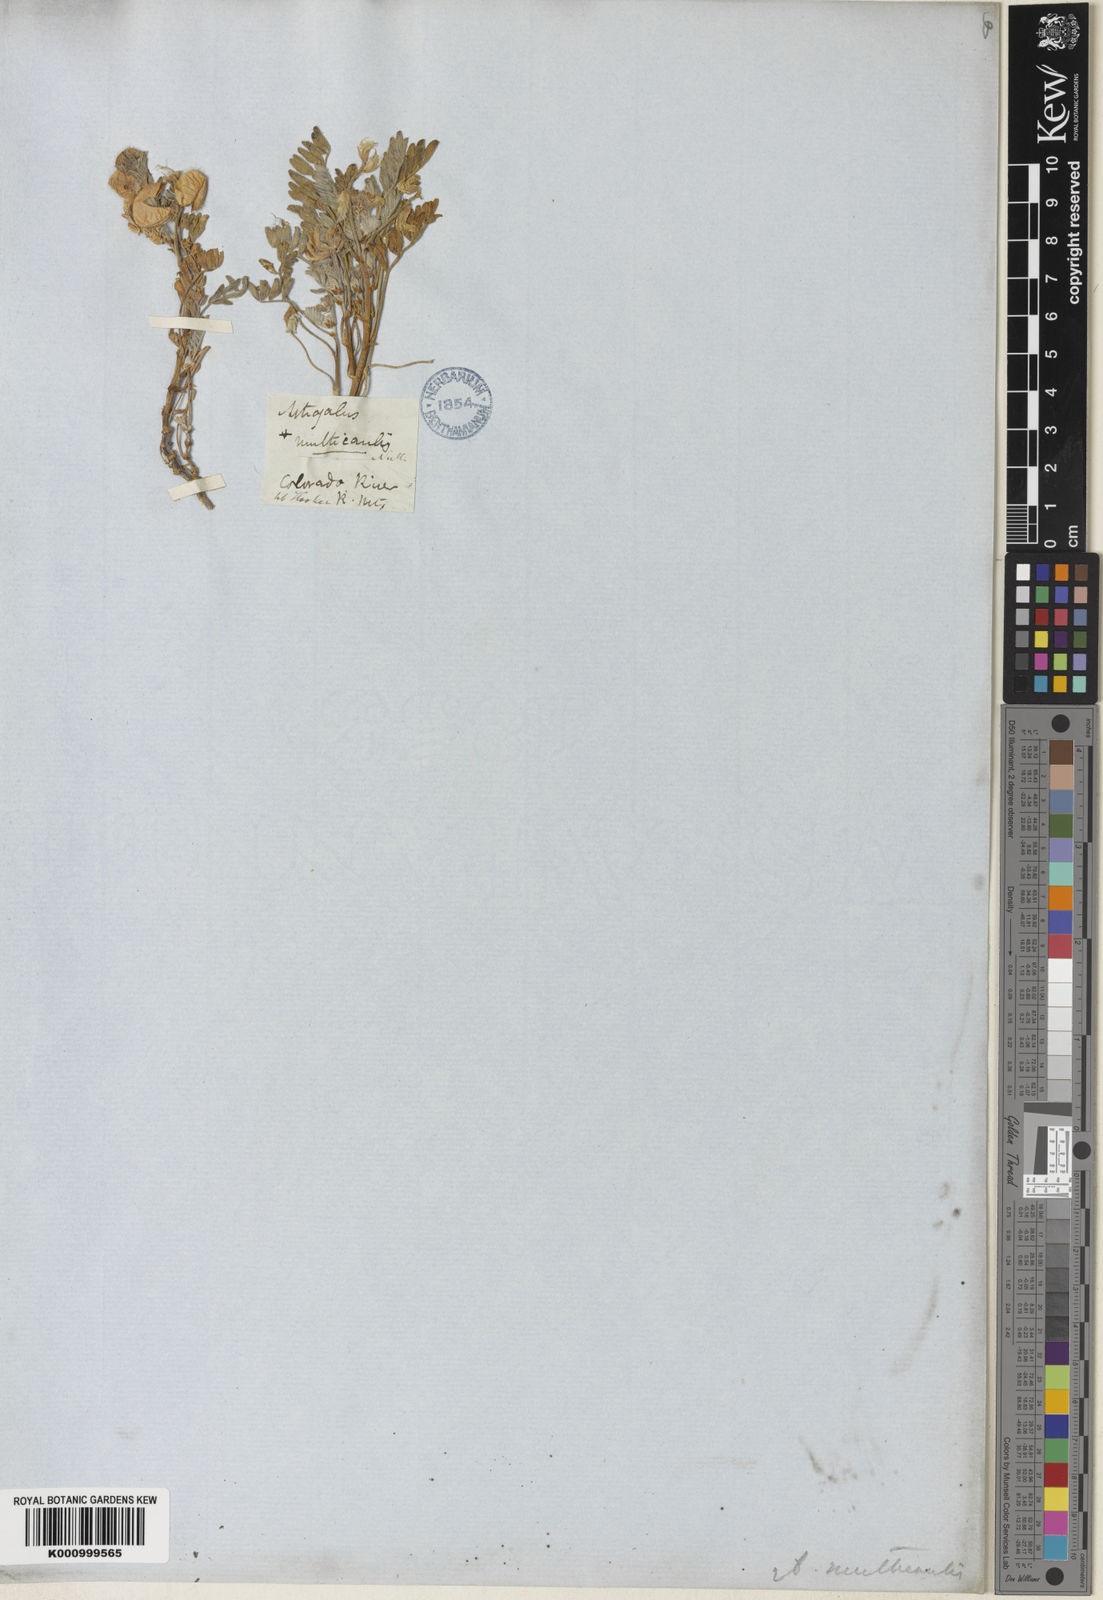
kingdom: Plantae
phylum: Tracheophyta
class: Magnoliopsida
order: Fabales
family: Fabaceae
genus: Astragalus
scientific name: Astragalus pubentissimus
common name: Green river milkvetch
